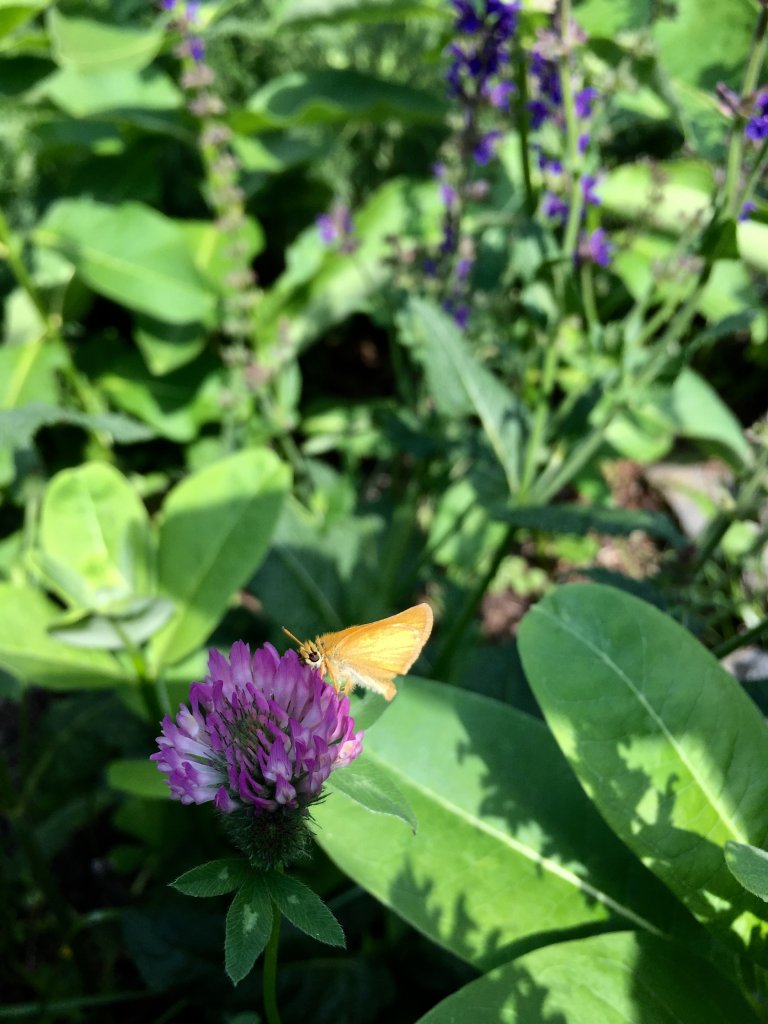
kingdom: Animalia
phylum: Arthropoda
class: Insecta
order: Lepidoptera
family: Hesperiidae
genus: Thymelicus
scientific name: Thymelicus lineola
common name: European Skipper
